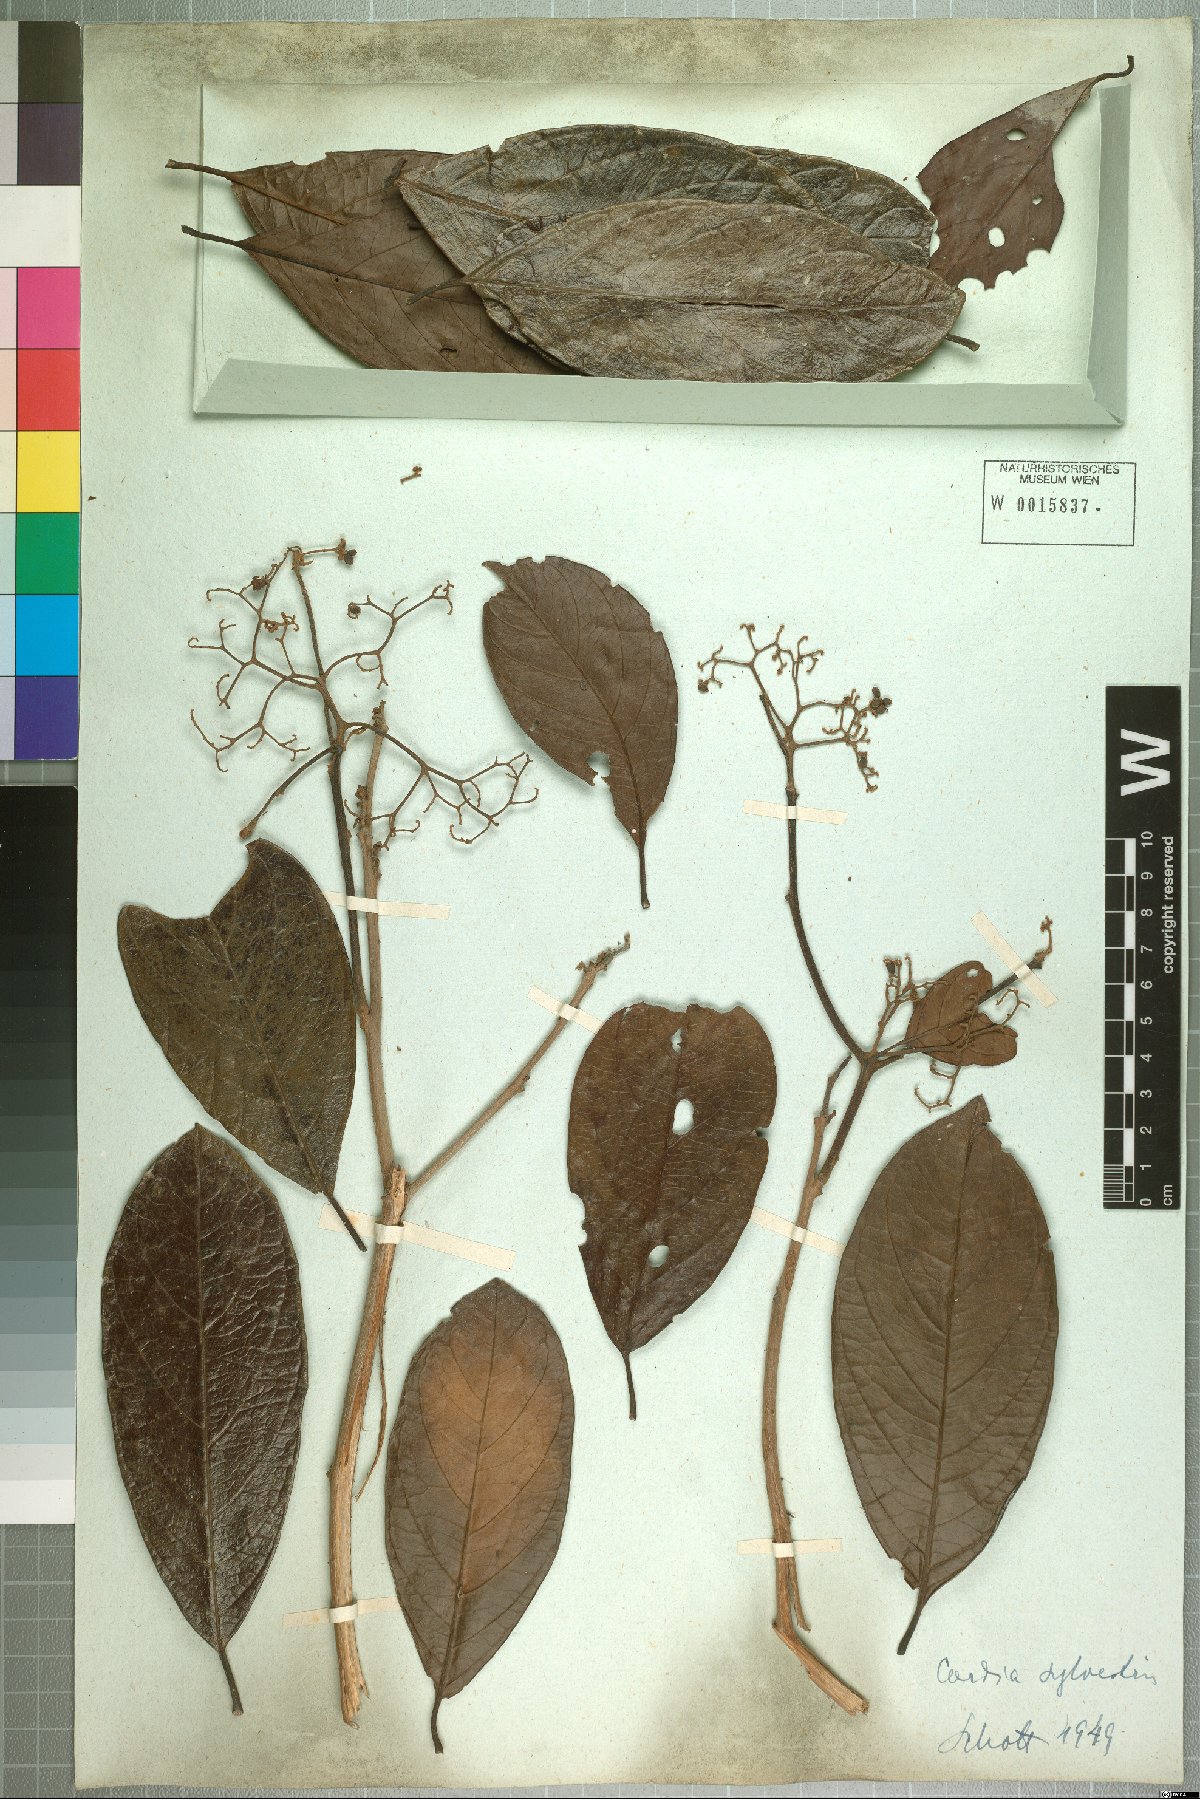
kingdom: Plantae
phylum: Tracheophyta
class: Magnoliopsida
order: Boraginales
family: Cordiaceae
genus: Cordia
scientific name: Cordia silvestris
